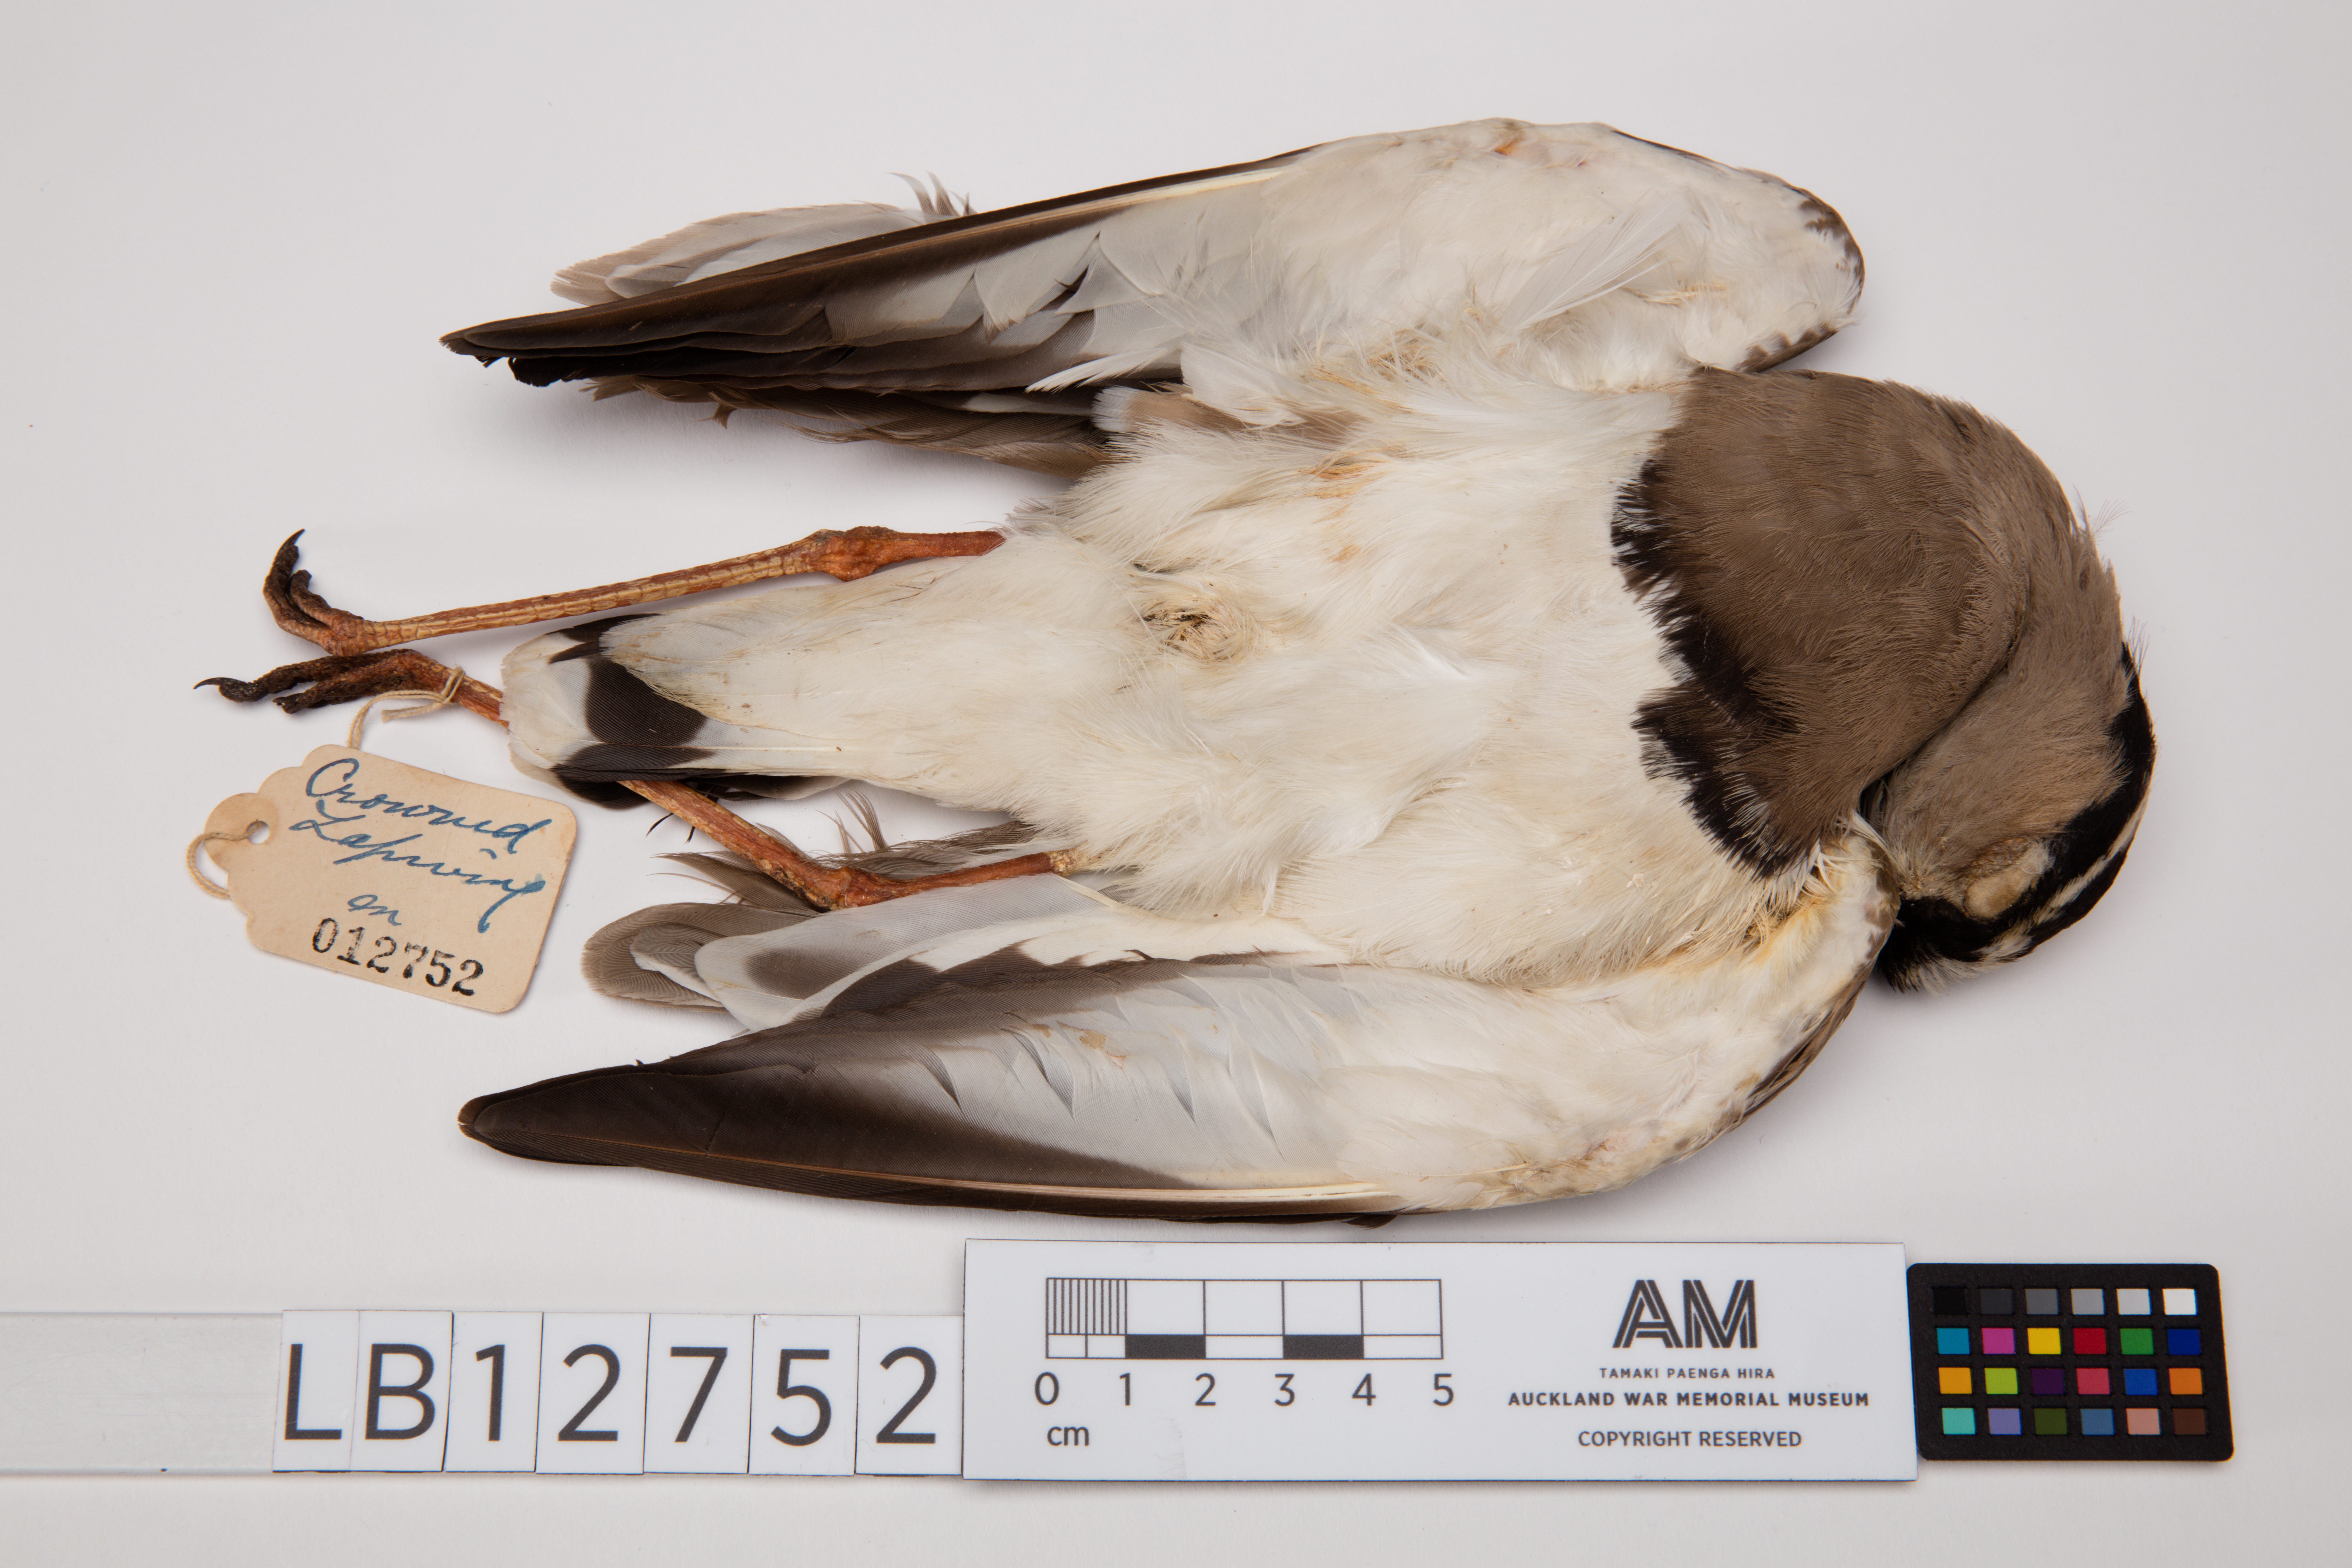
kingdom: Animalia
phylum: Chordata
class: Aves
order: Charadriiformes
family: Charadriidae
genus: Vanellus
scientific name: Vanellus coronatus
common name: Crowned lapwing
